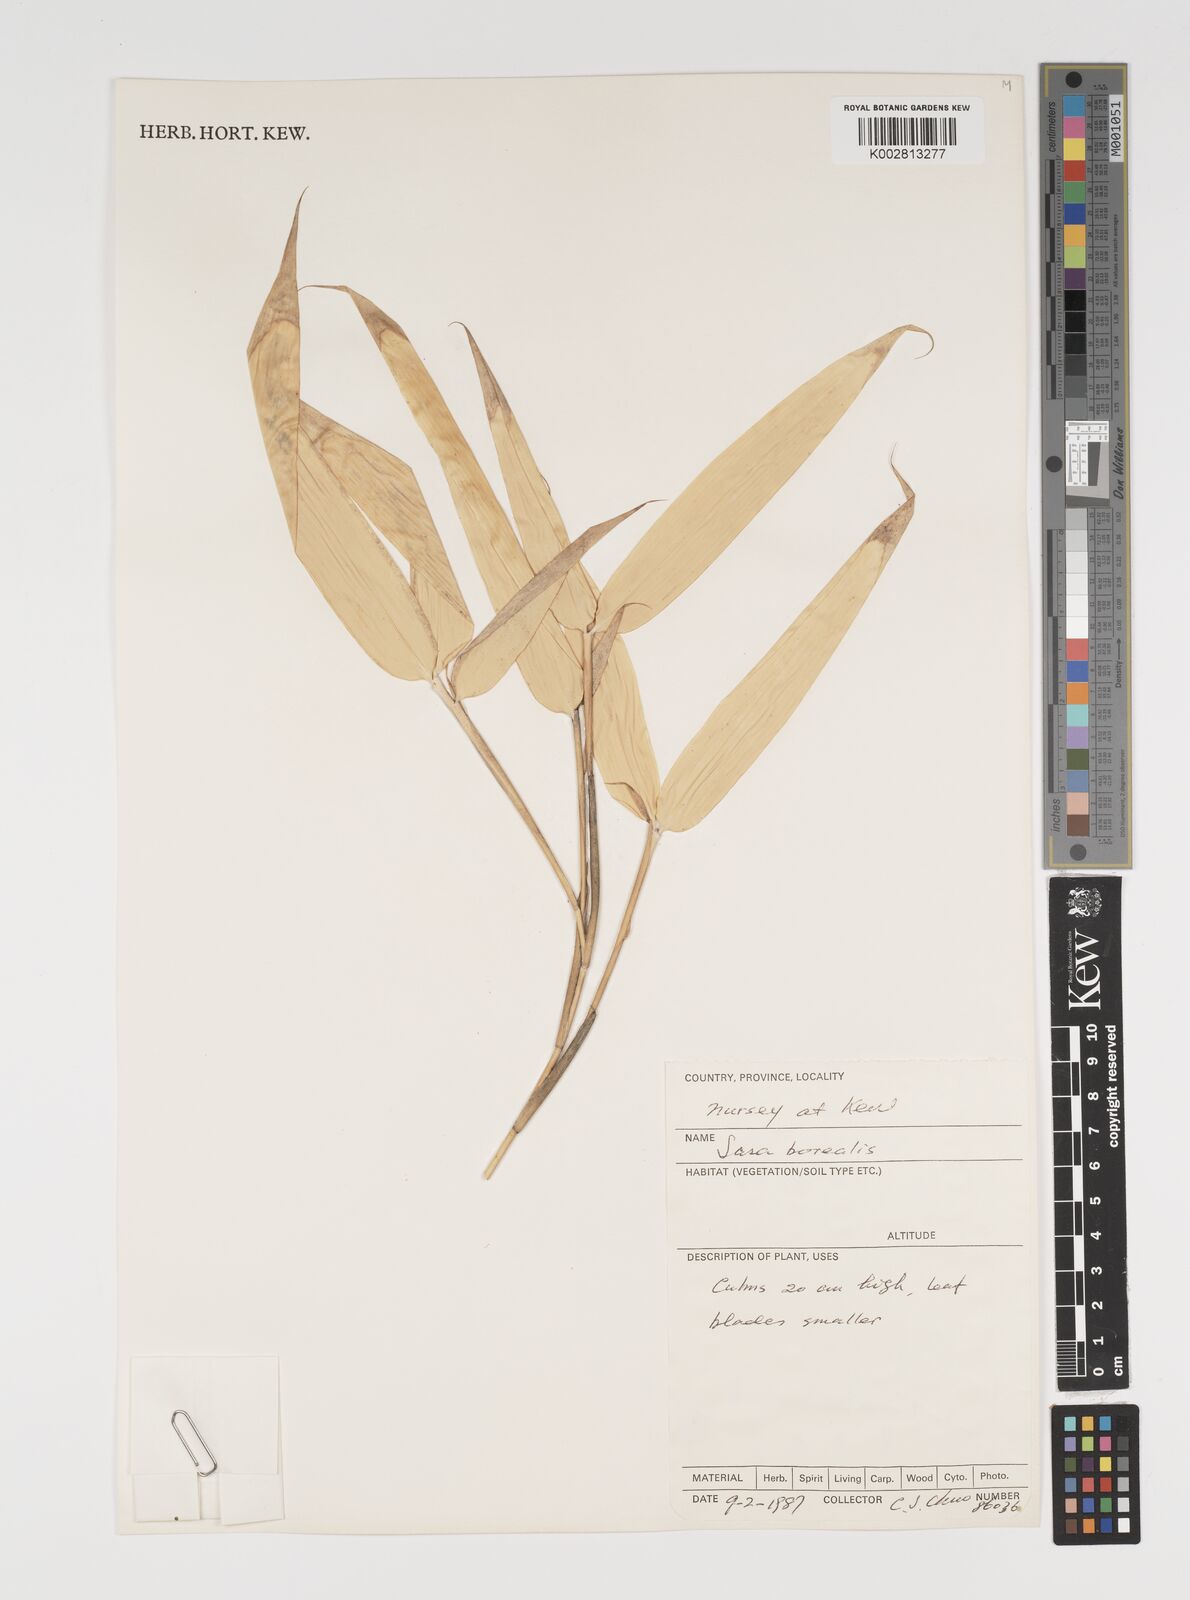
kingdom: Plantae
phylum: Tracheophyta
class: Liliopsida
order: Poales
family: Poaceae
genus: Sasamorpha
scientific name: Sasamorpha borealis
